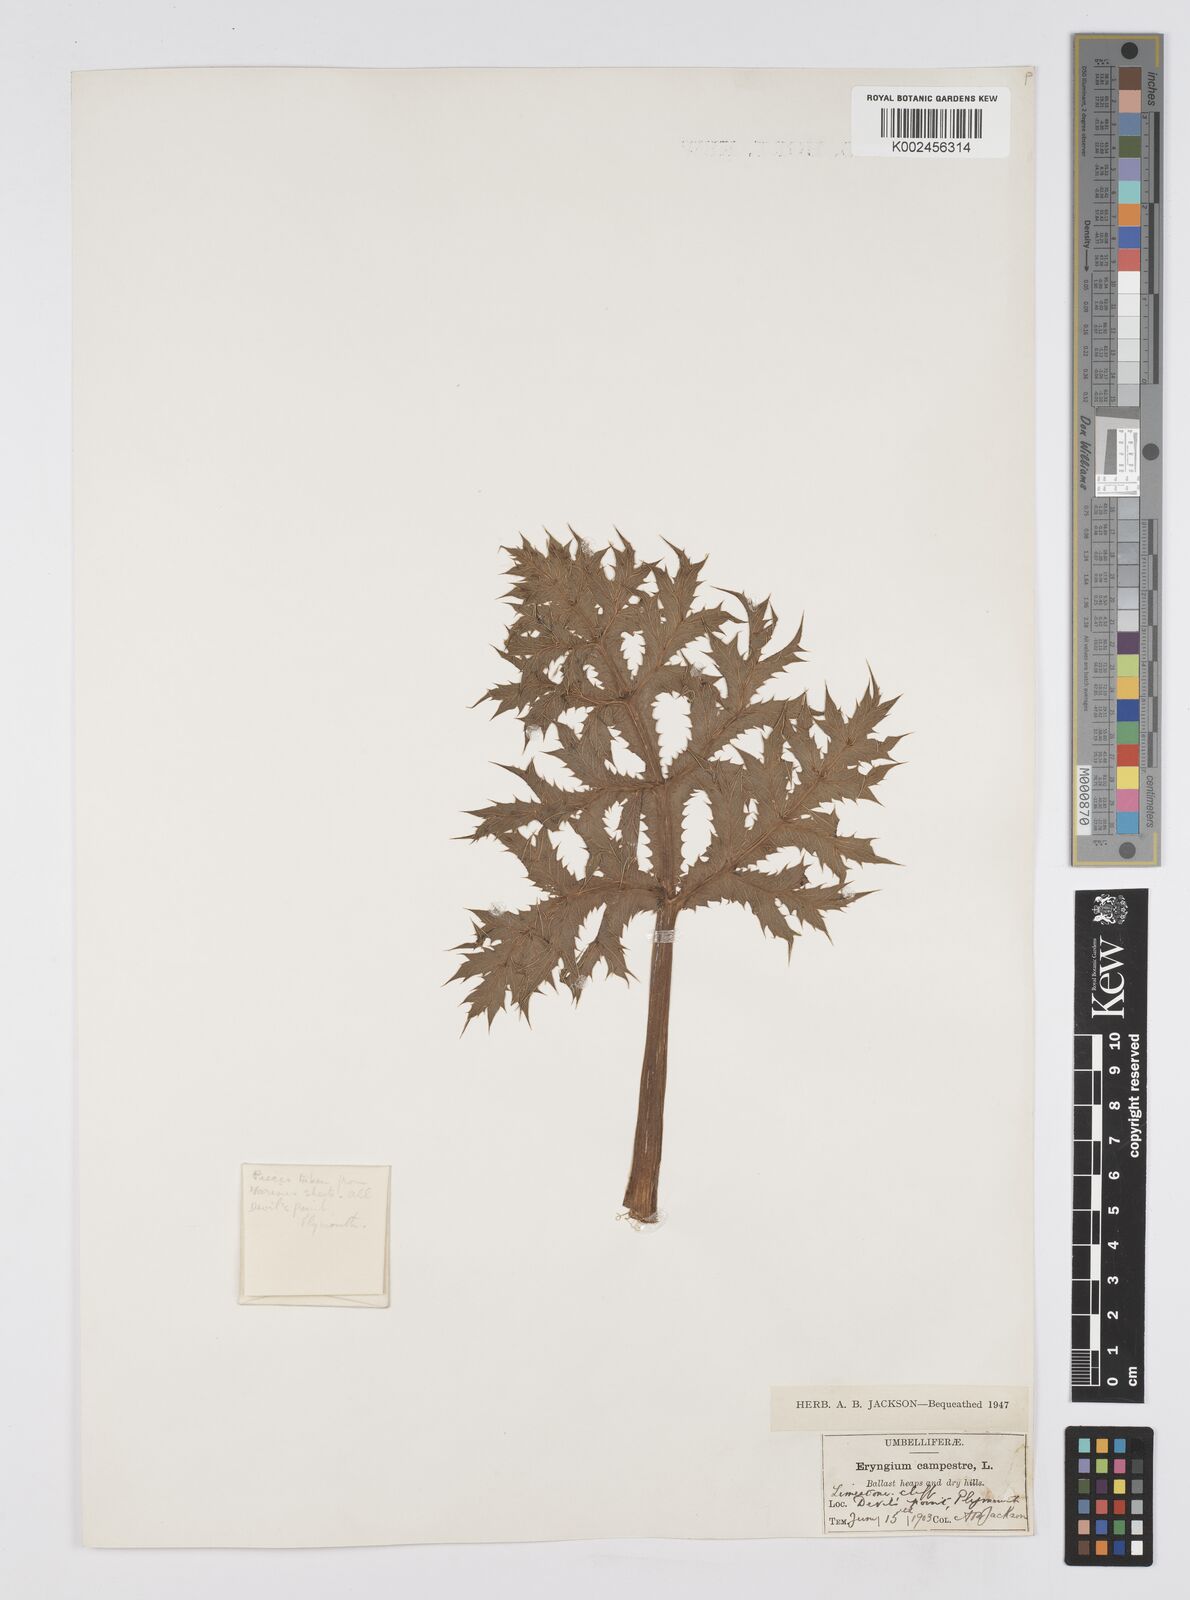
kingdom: Plantae
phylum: Tracheophyta
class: Magnoliopsida
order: Apiales
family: Apiaceae
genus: Eryngium
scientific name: Eryngium campestre
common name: Field eryngo
